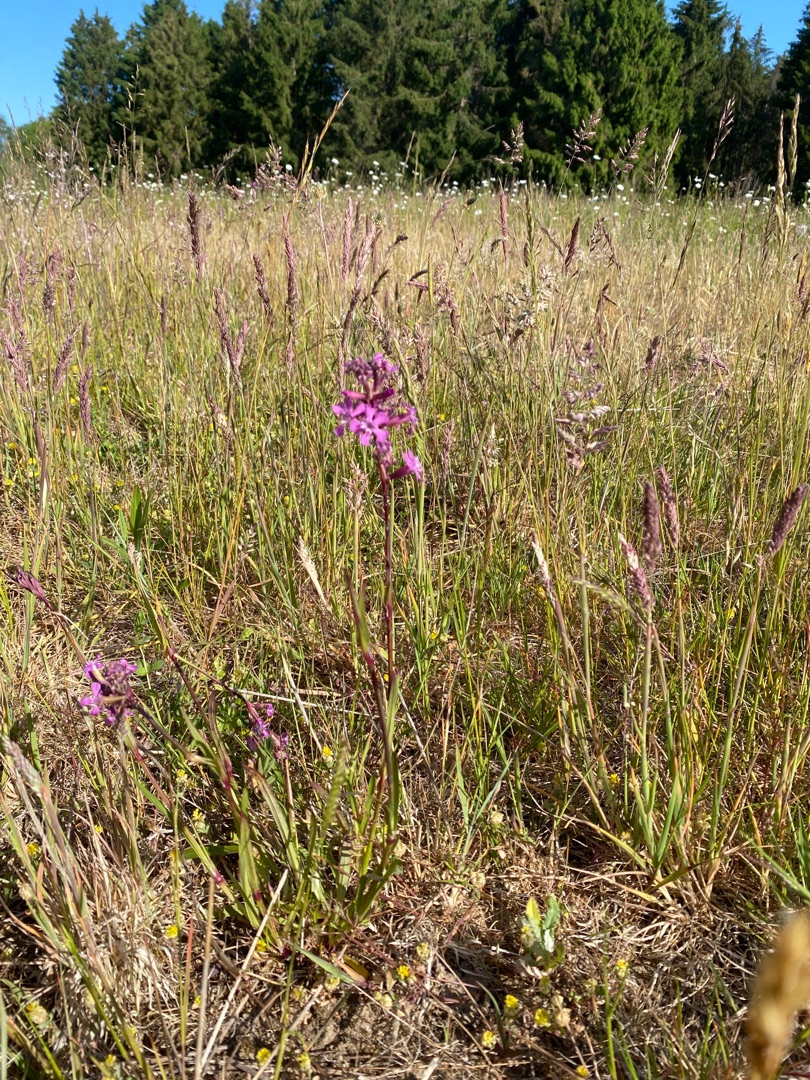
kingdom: Plantae
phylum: Tracheophyta
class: Magnoliopsida
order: Caryophyllales
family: Caryophyllaceae
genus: Viscaria
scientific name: Viscaria vulgaris
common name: Tjærenellike
